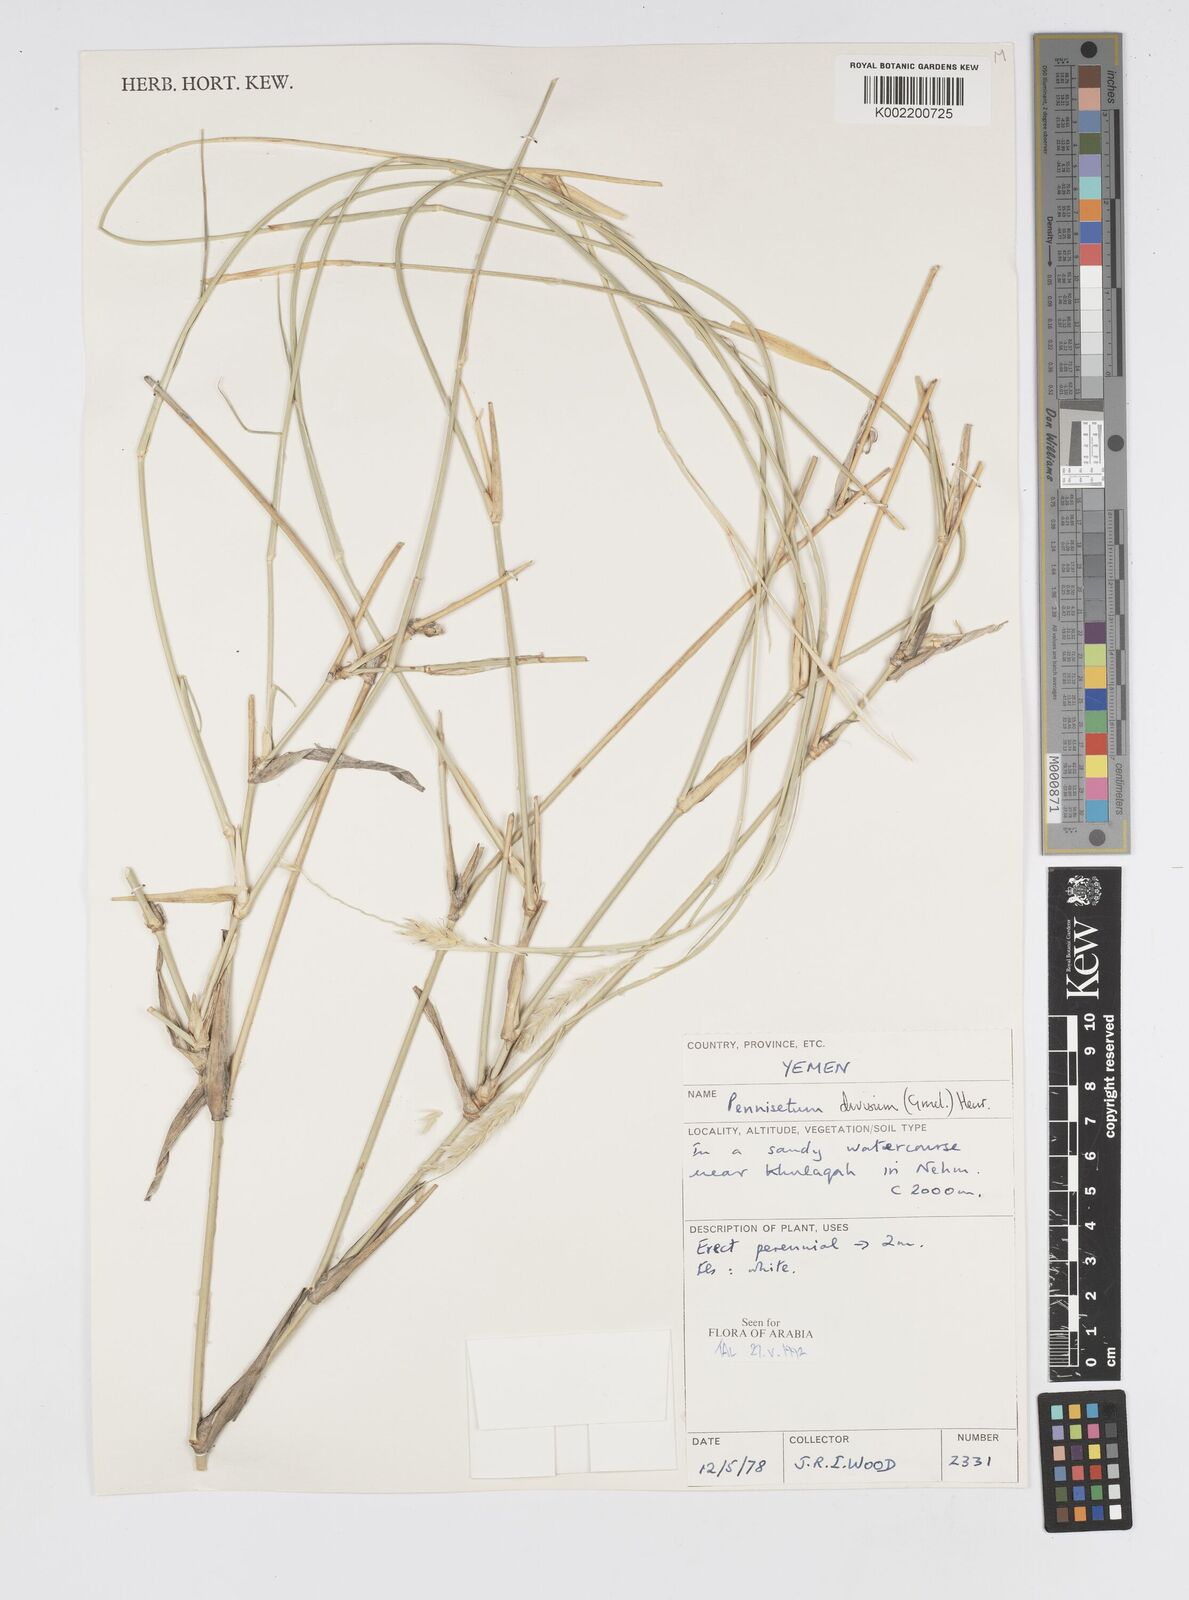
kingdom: Plantae
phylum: Tracheophyta
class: Liliopsida
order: Poales
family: Poaceae
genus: Cenchrus
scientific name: Cenchrus divisus
